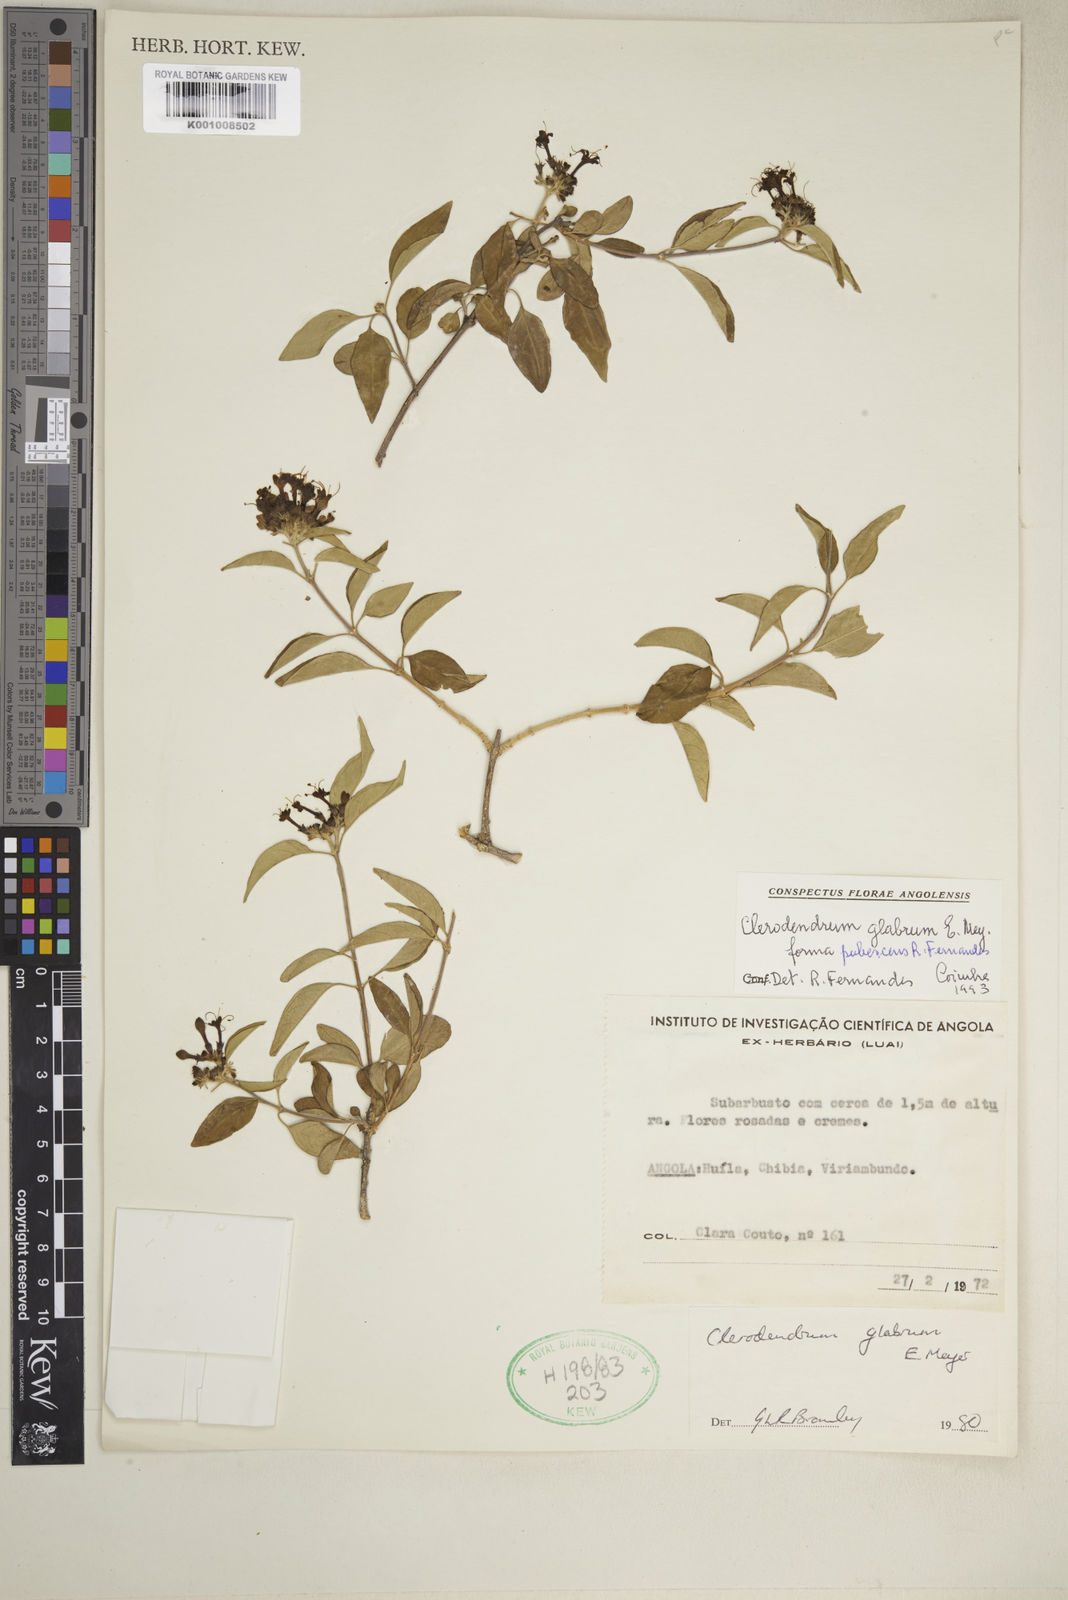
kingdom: Plantae
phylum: Tracheophyta
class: Magnoliopsida
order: Lamiales
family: Lamiaceae
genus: Volkameria
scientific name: Volkameria glabra
